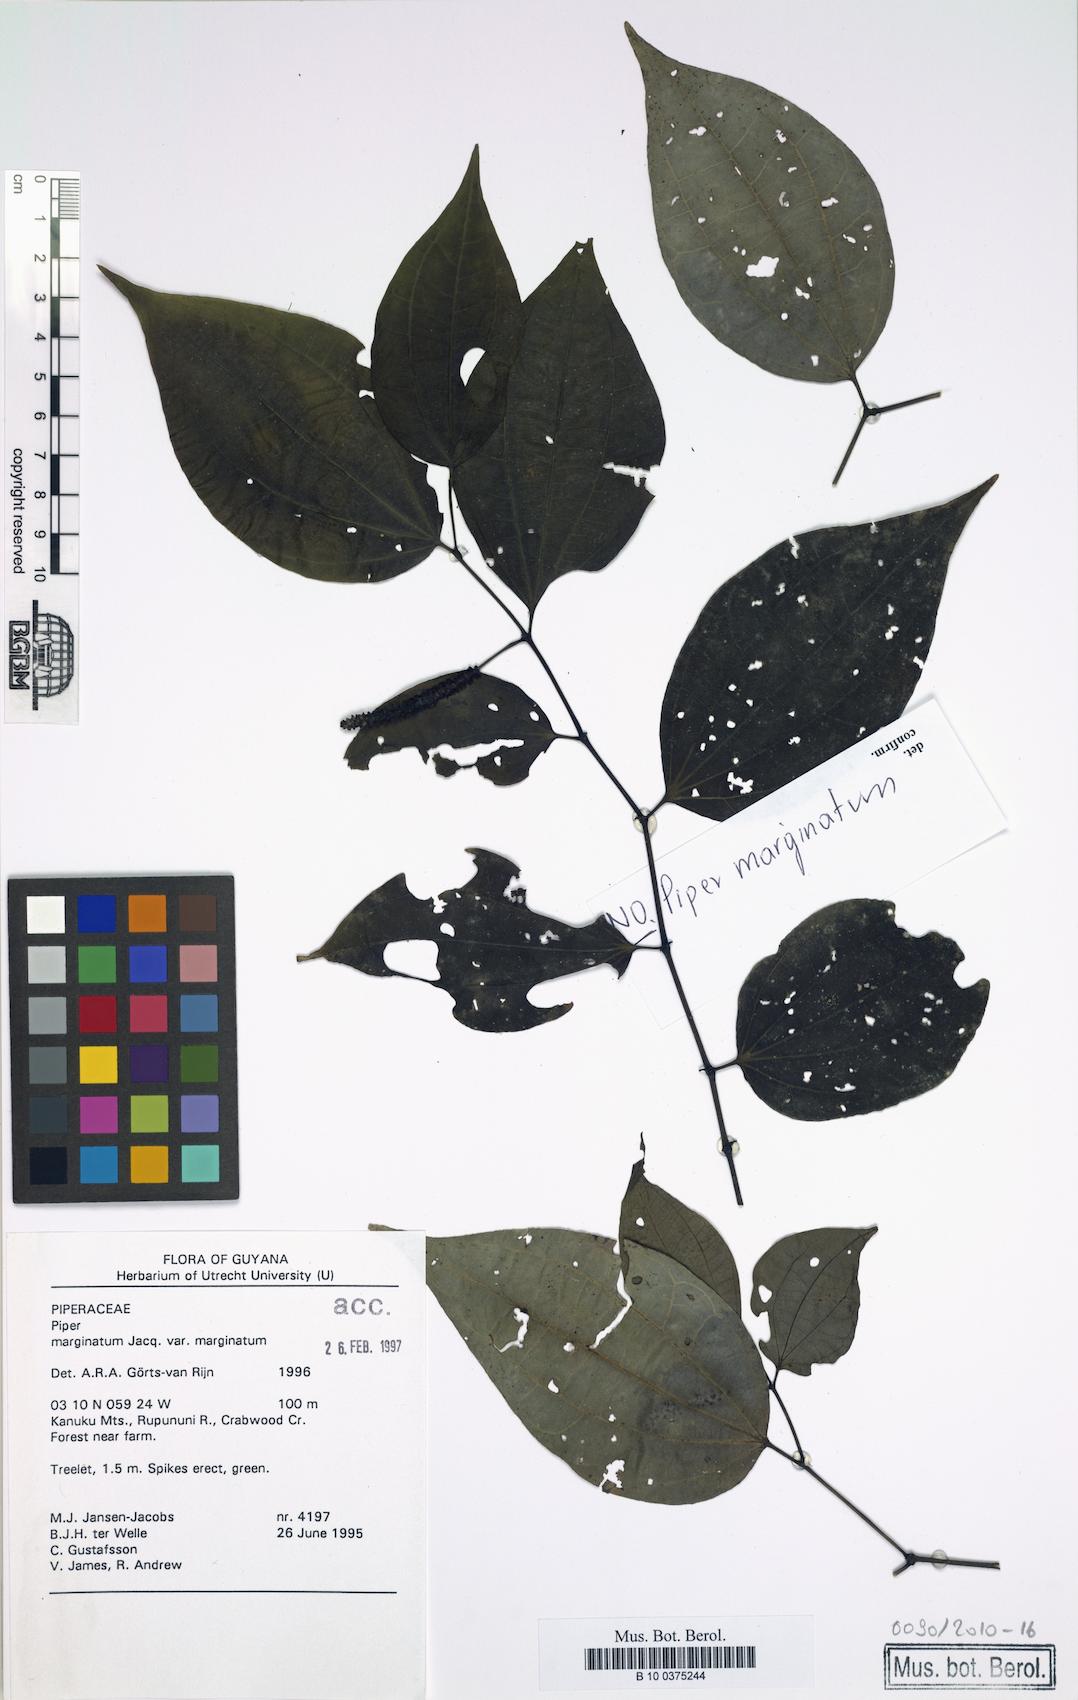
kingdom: Plantae
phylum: Tracheophyta
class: Magnoliopsida
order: Piperales
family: Piperaceae
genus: Piper
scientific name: Piper marginatum
